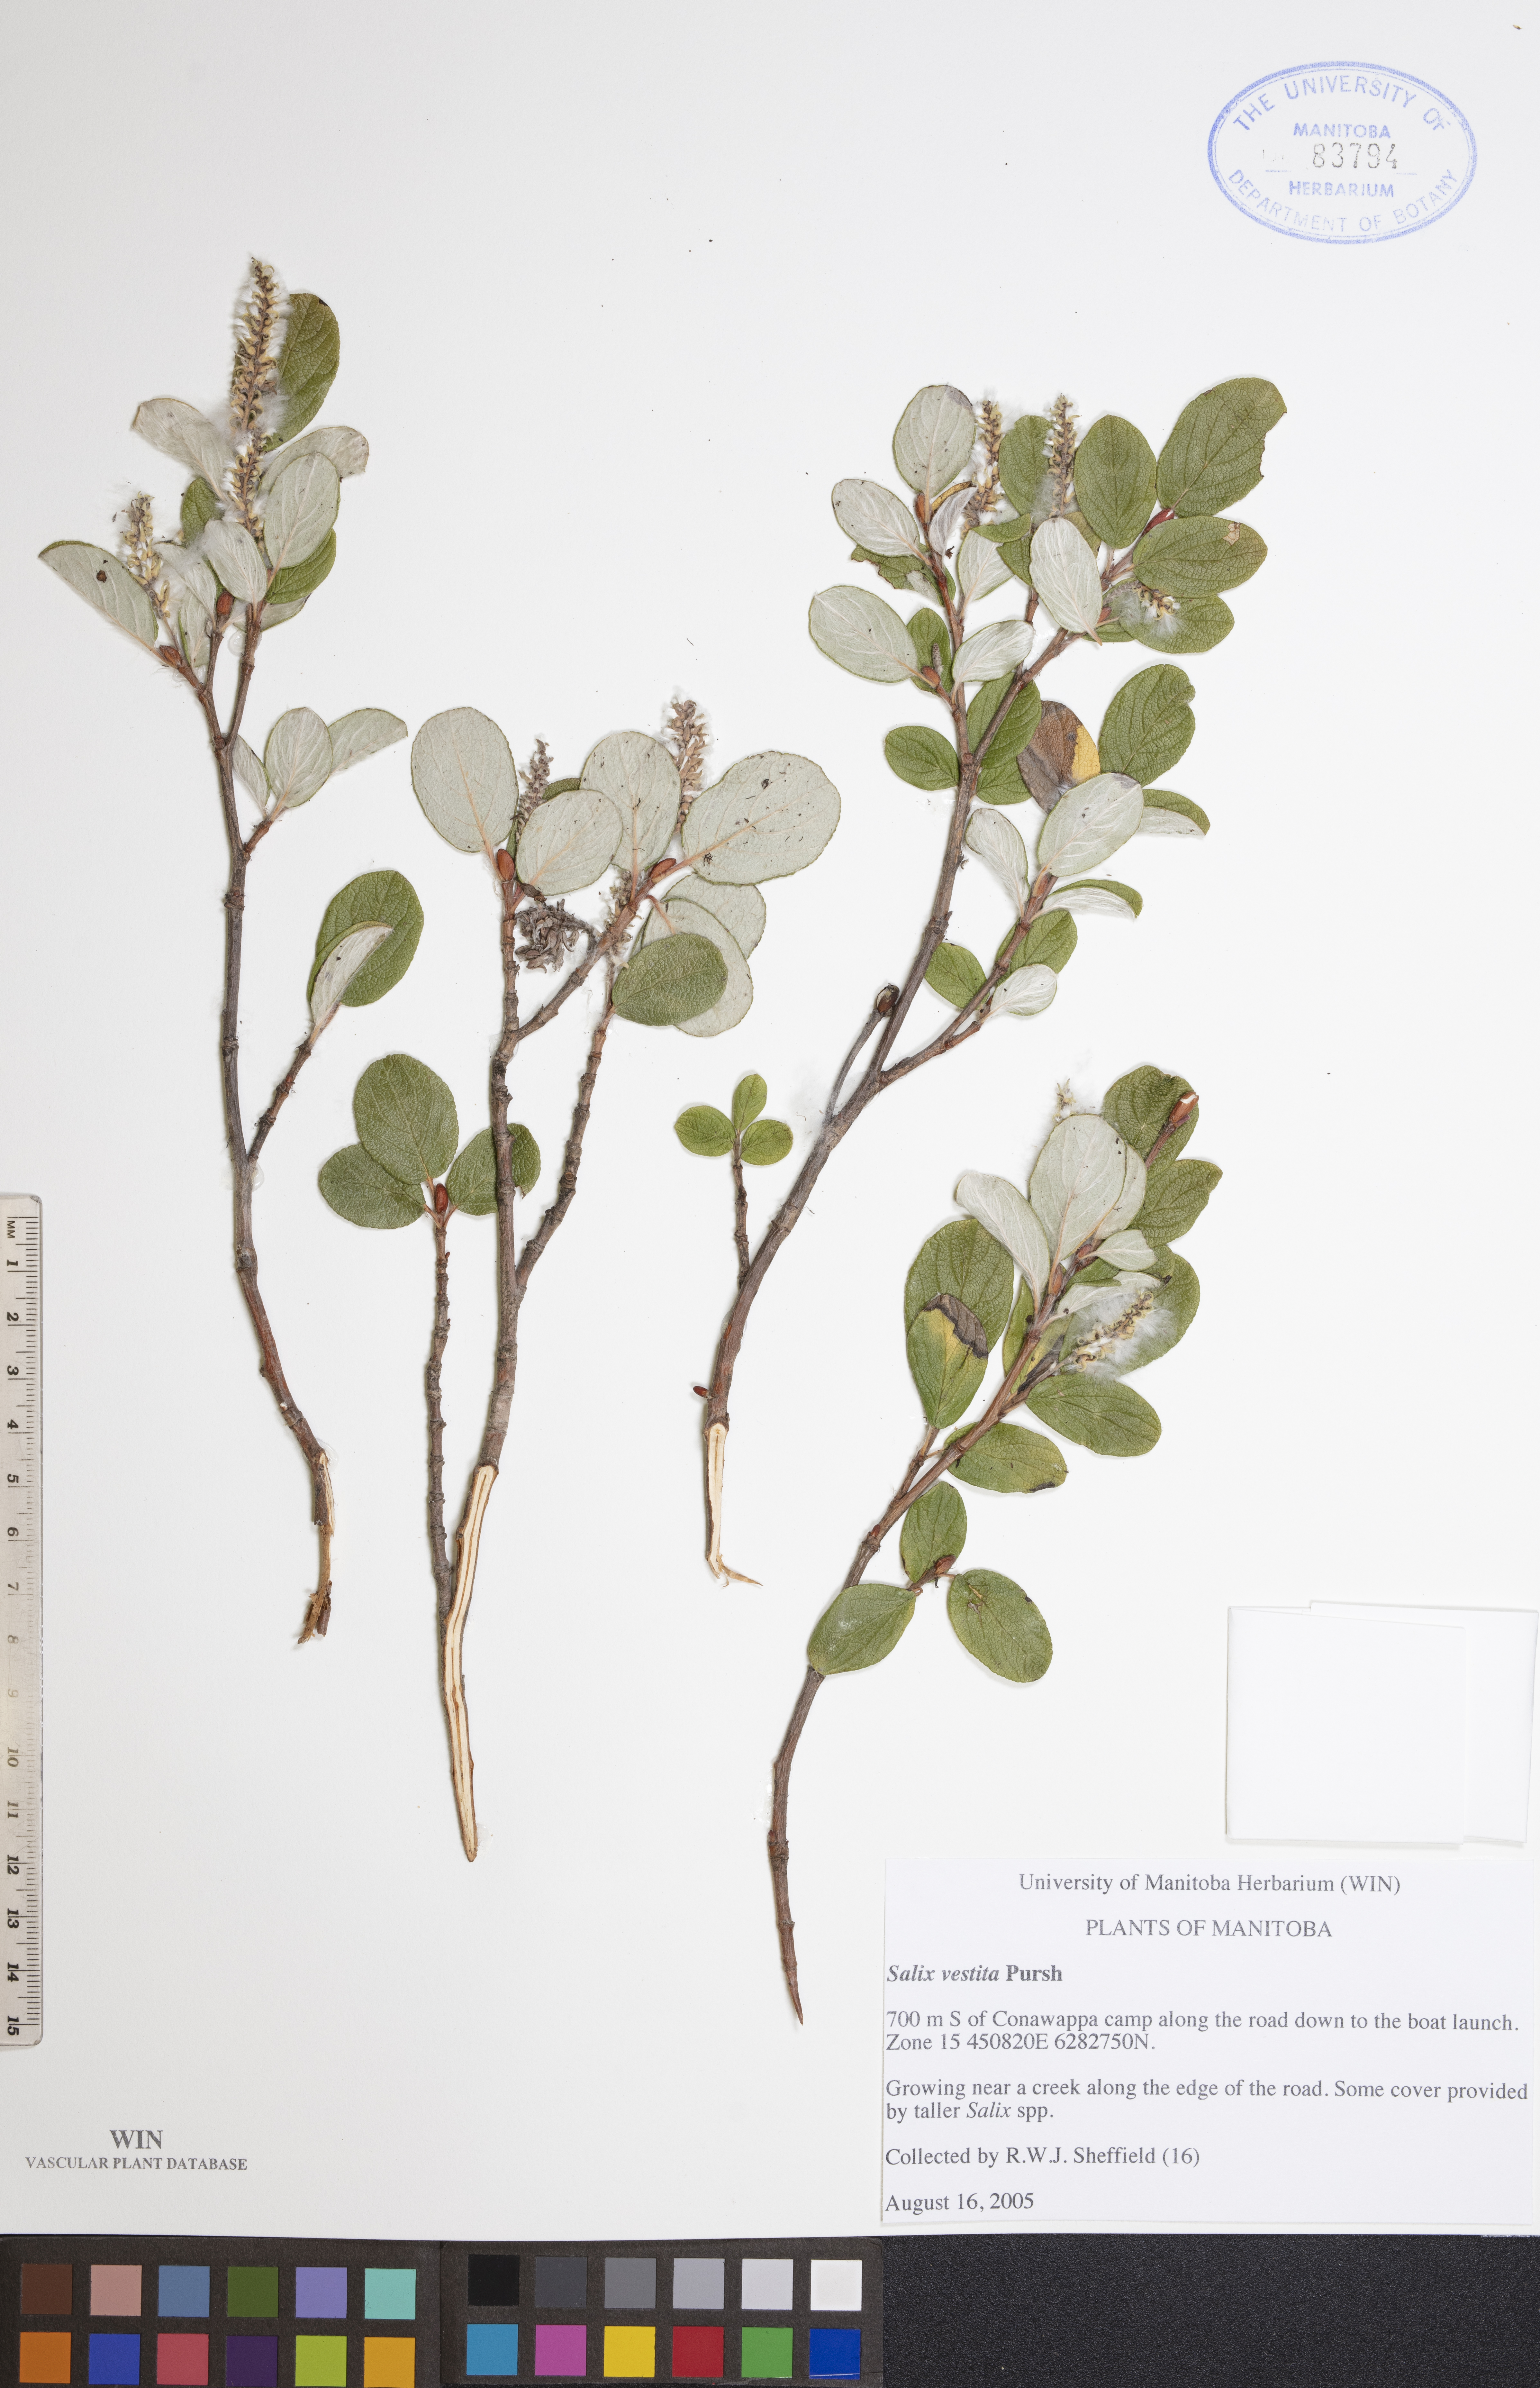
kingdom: Plantae
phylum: Tracheophyta
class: Magnoliopsida
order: Malpighiales
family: Salicaceae
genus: Salix
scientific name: Salix vestita
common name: Hairy willow
